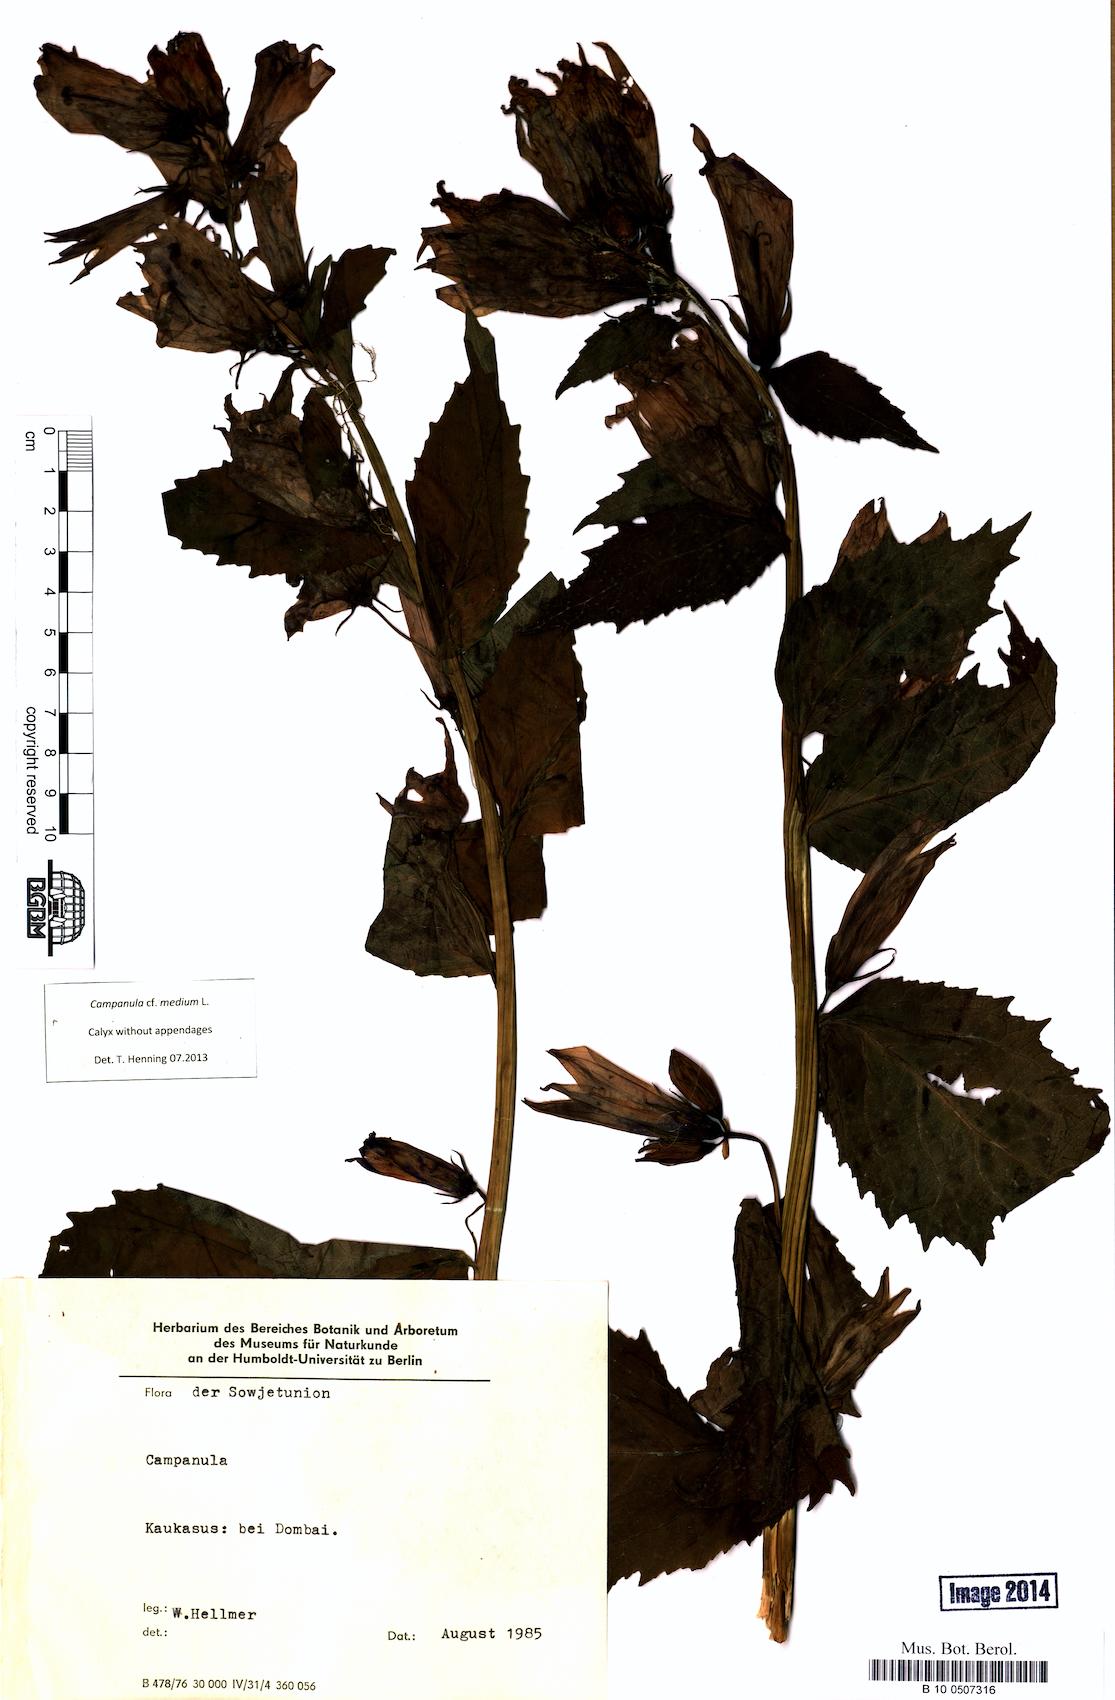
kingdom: Plantae
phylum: Tracheophyta
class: Magnoliopsida
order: Asterales
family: Campanulaceae
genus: Campanula
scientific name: Campanula medium
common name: Canterbury bells
